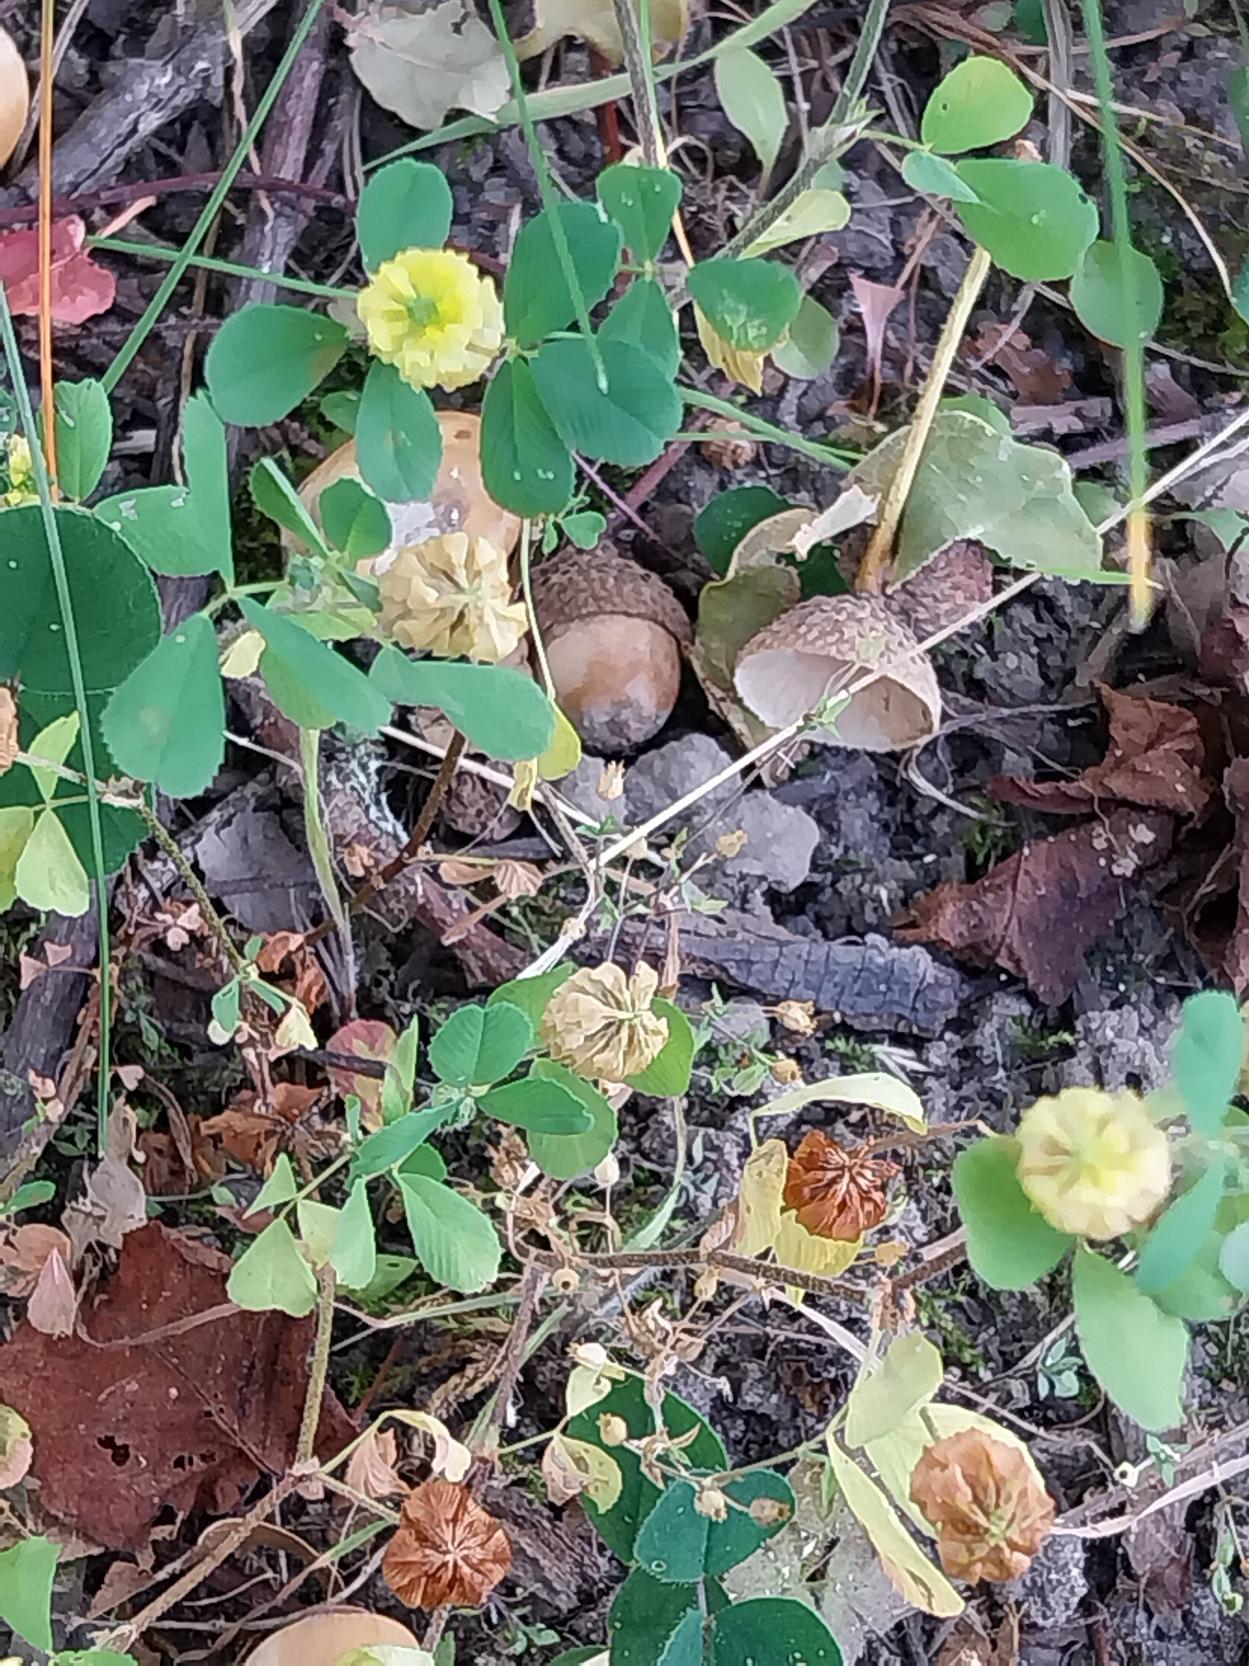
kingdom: Plantae
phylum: Tracheophyta
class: Magnoliopsida
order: Fabales
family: Fabaceae
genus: Trifolium
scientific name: Trifolium campestre
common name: Gul kløver
